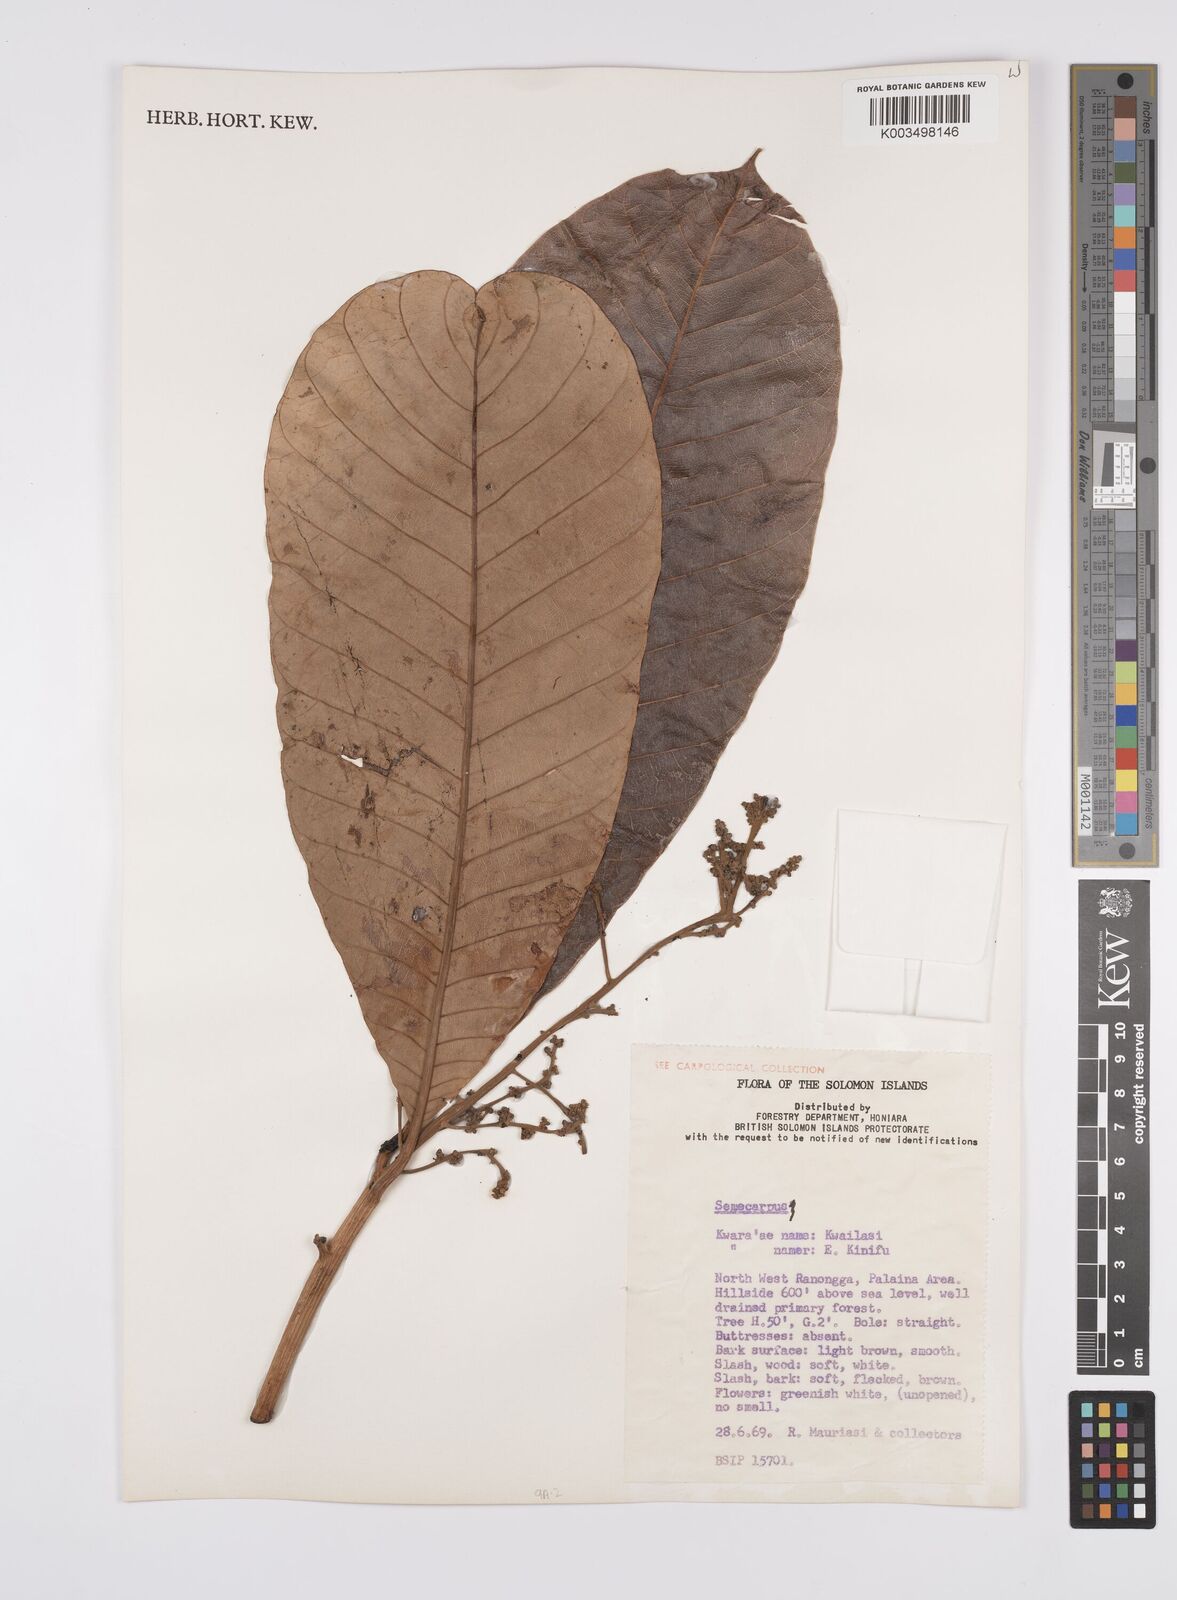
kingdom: Plantae
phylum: Tracheophyta
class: Magnoliopsida
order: Sapindales
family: Anacardiaceae
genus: Semecarpus
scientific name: Semecarpus
